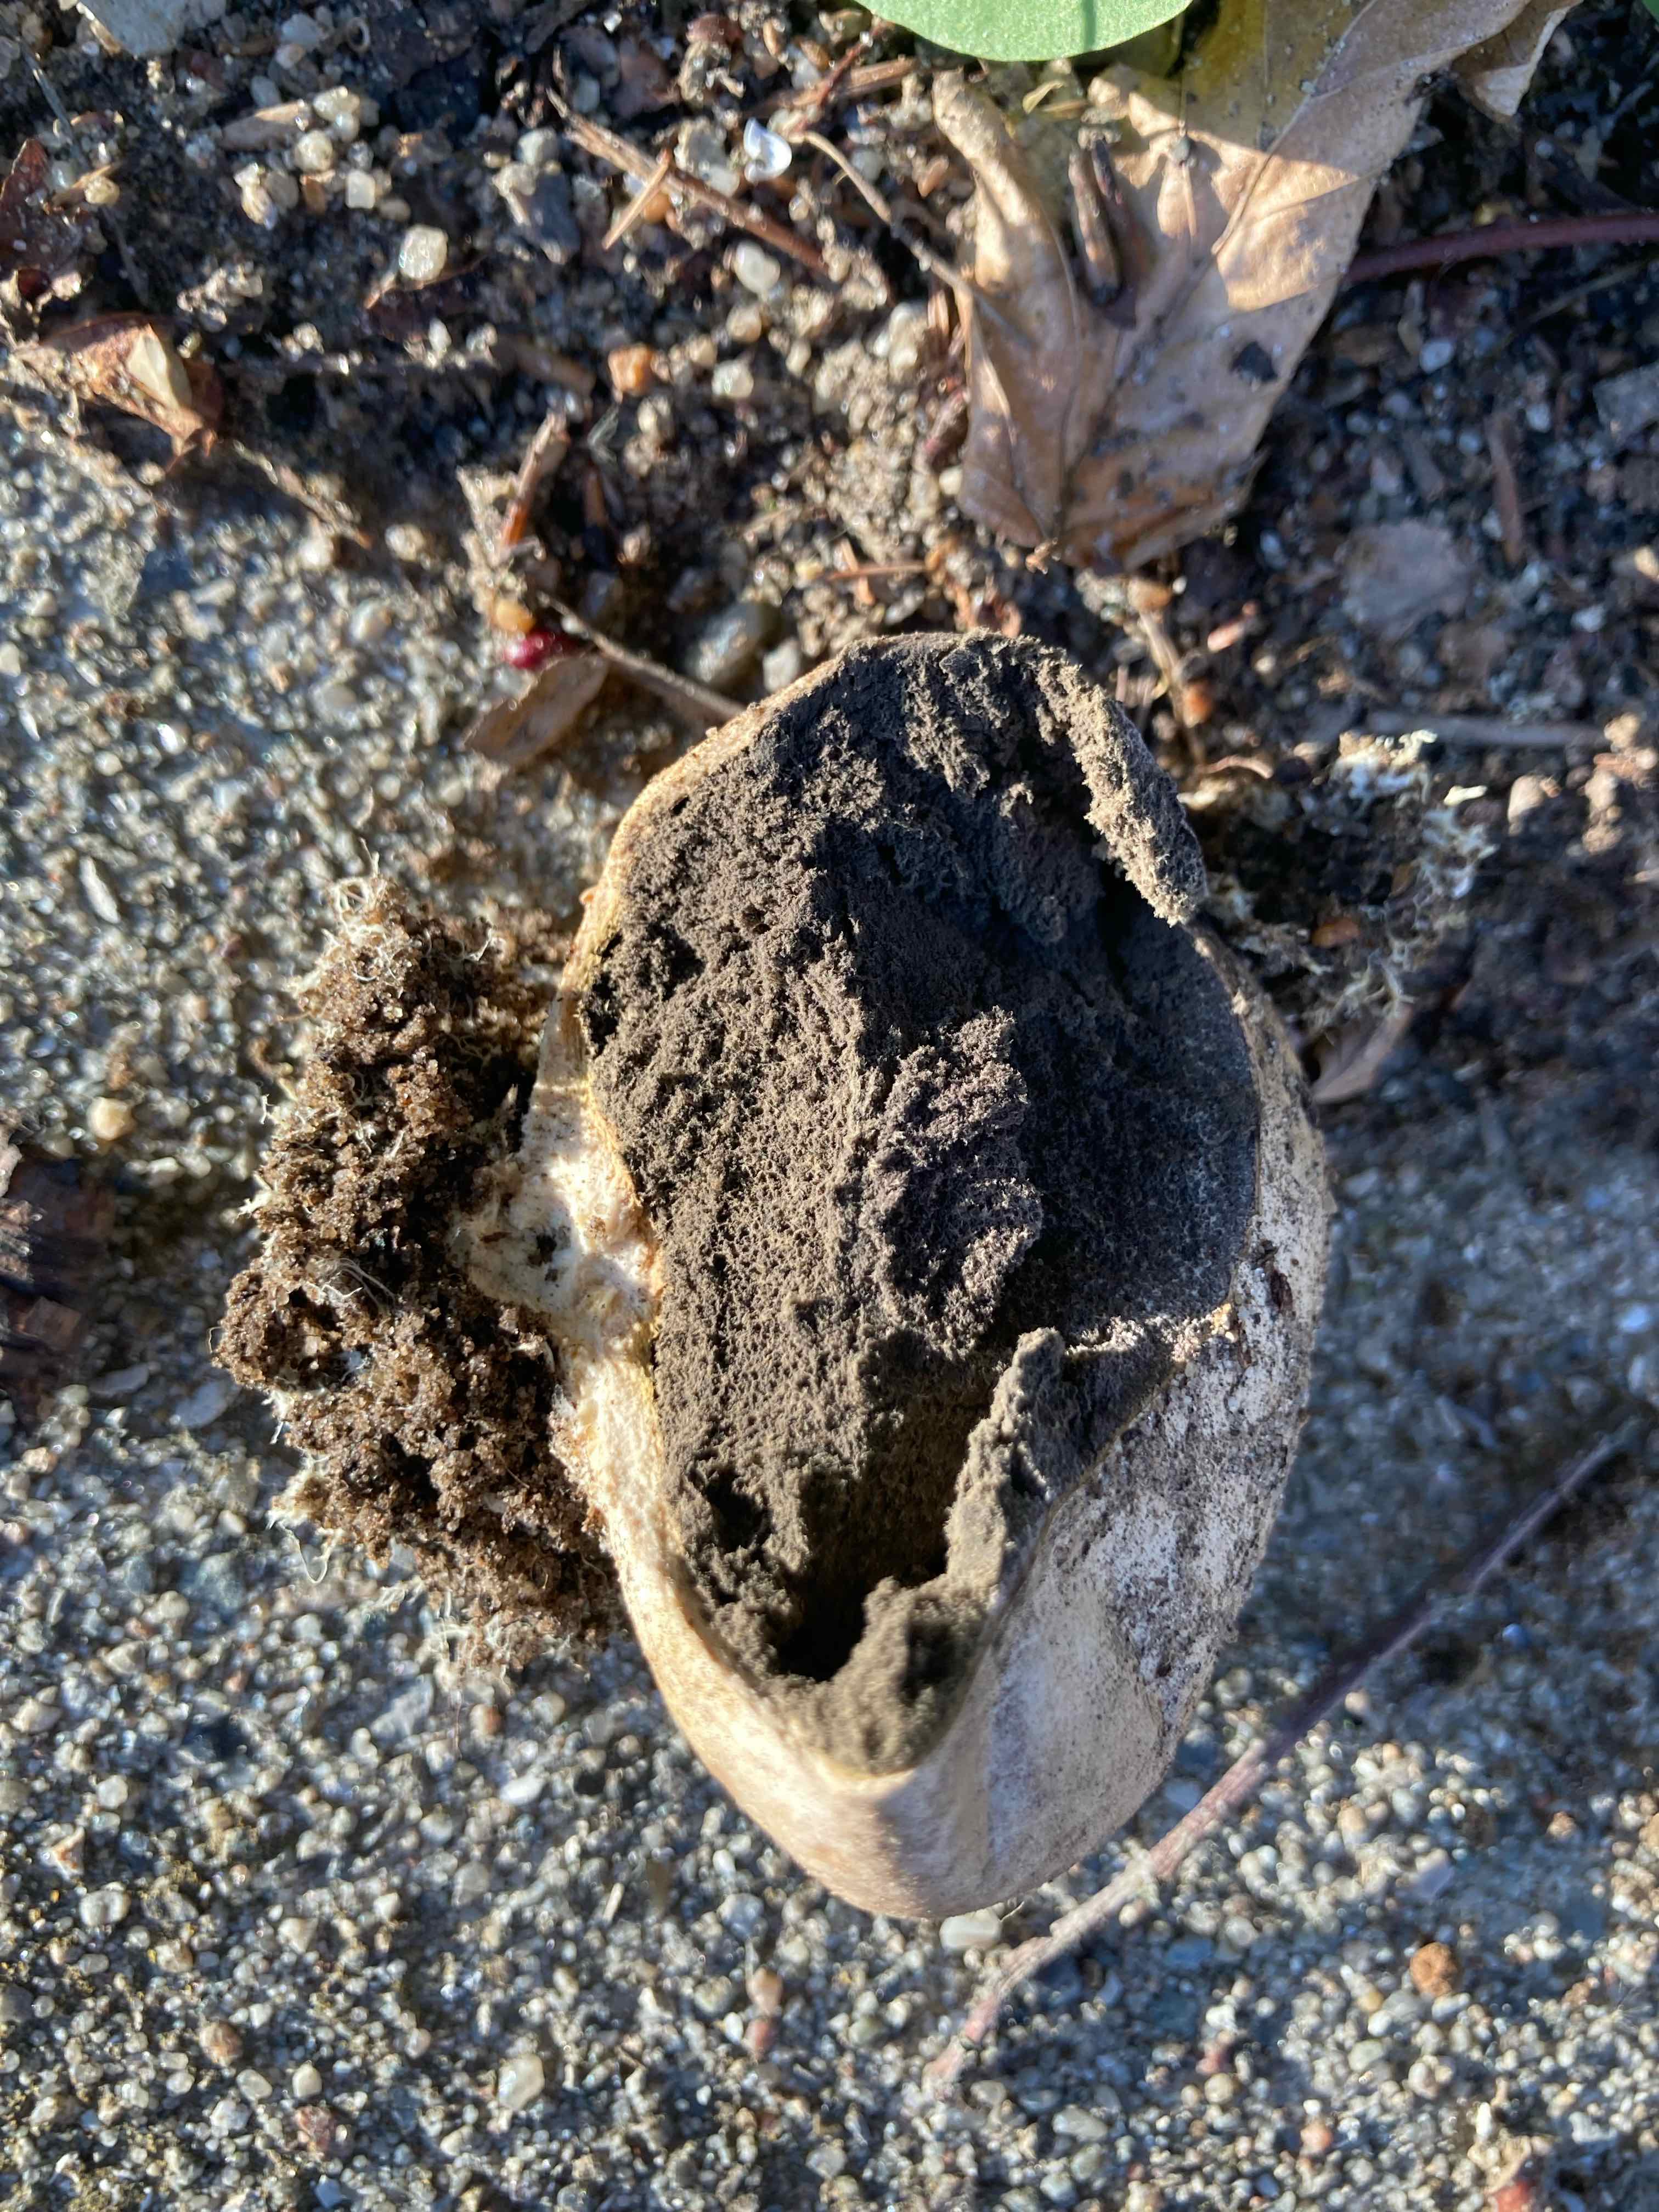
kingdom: Fungi
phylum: Basidiomycota
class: Agaricomycetes
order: Boletales
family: Sclerodermataceae
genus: Scleroderma
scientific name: Scleroderma bovista
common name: bovist-bruskbold
